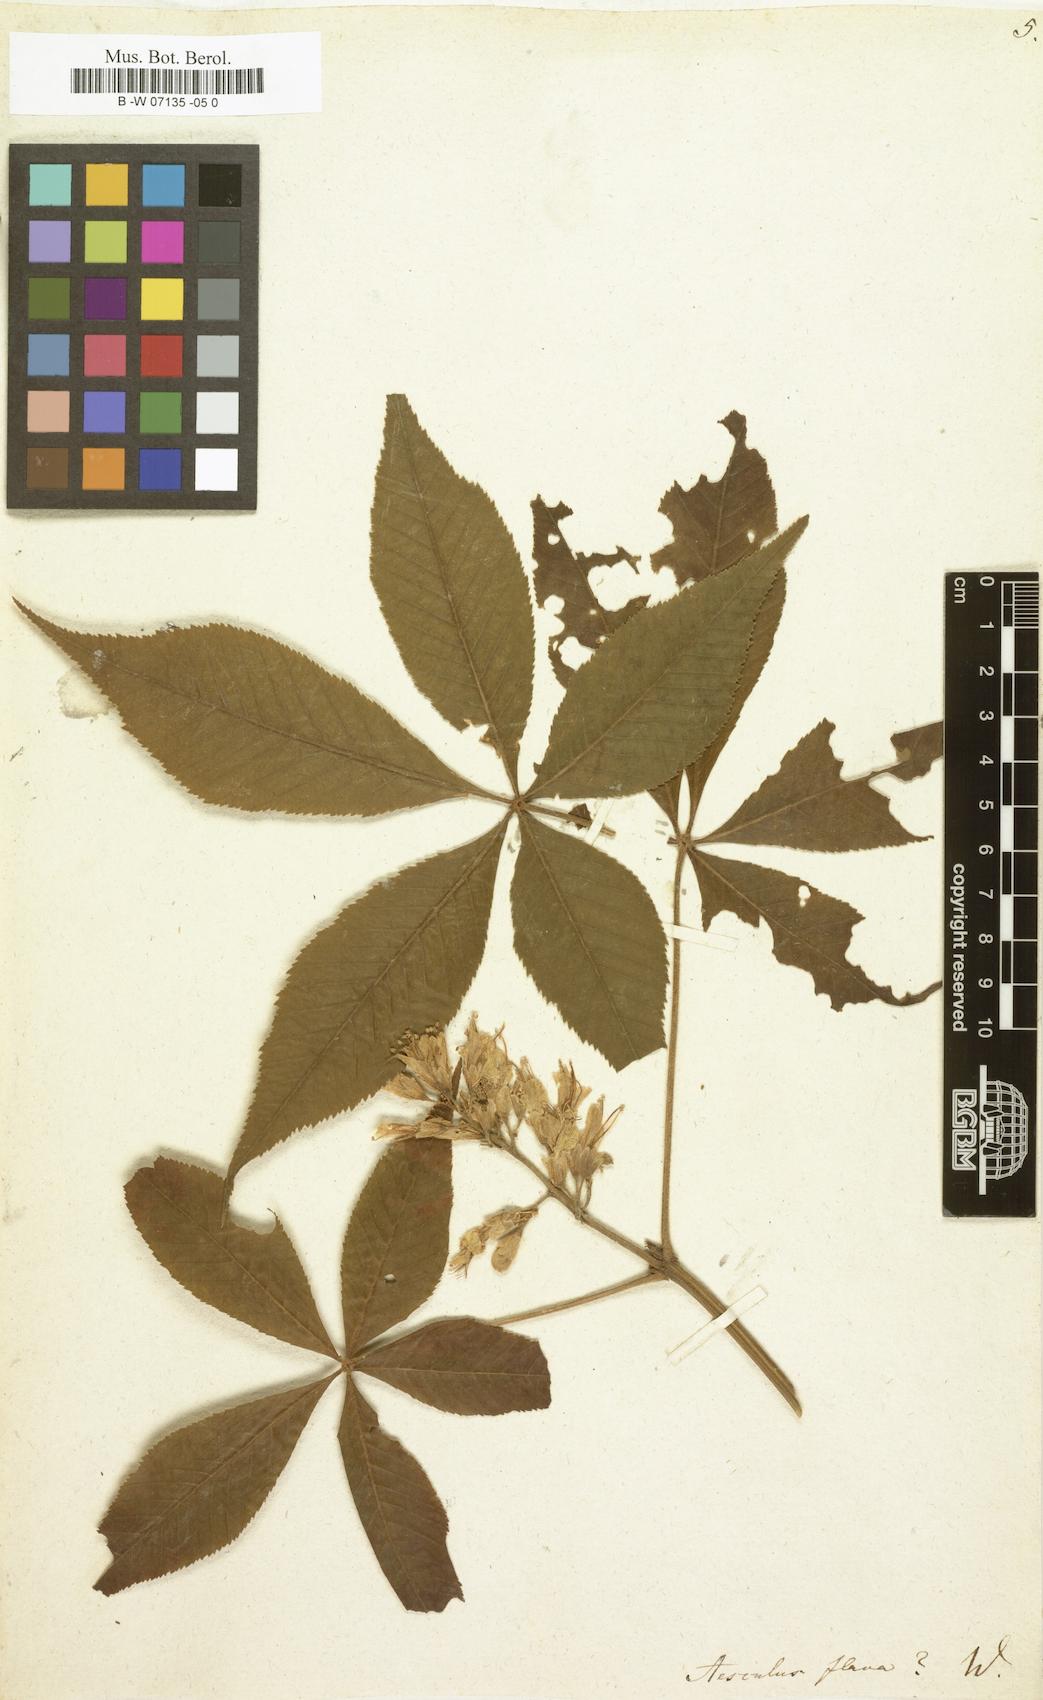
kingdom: Plantae
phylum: Tracheophyta
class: Magnoliopsida
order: Sapindales
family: Sapindaceae
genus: Aesculus
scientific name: Aesculus flava
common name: Yellow buckeye
